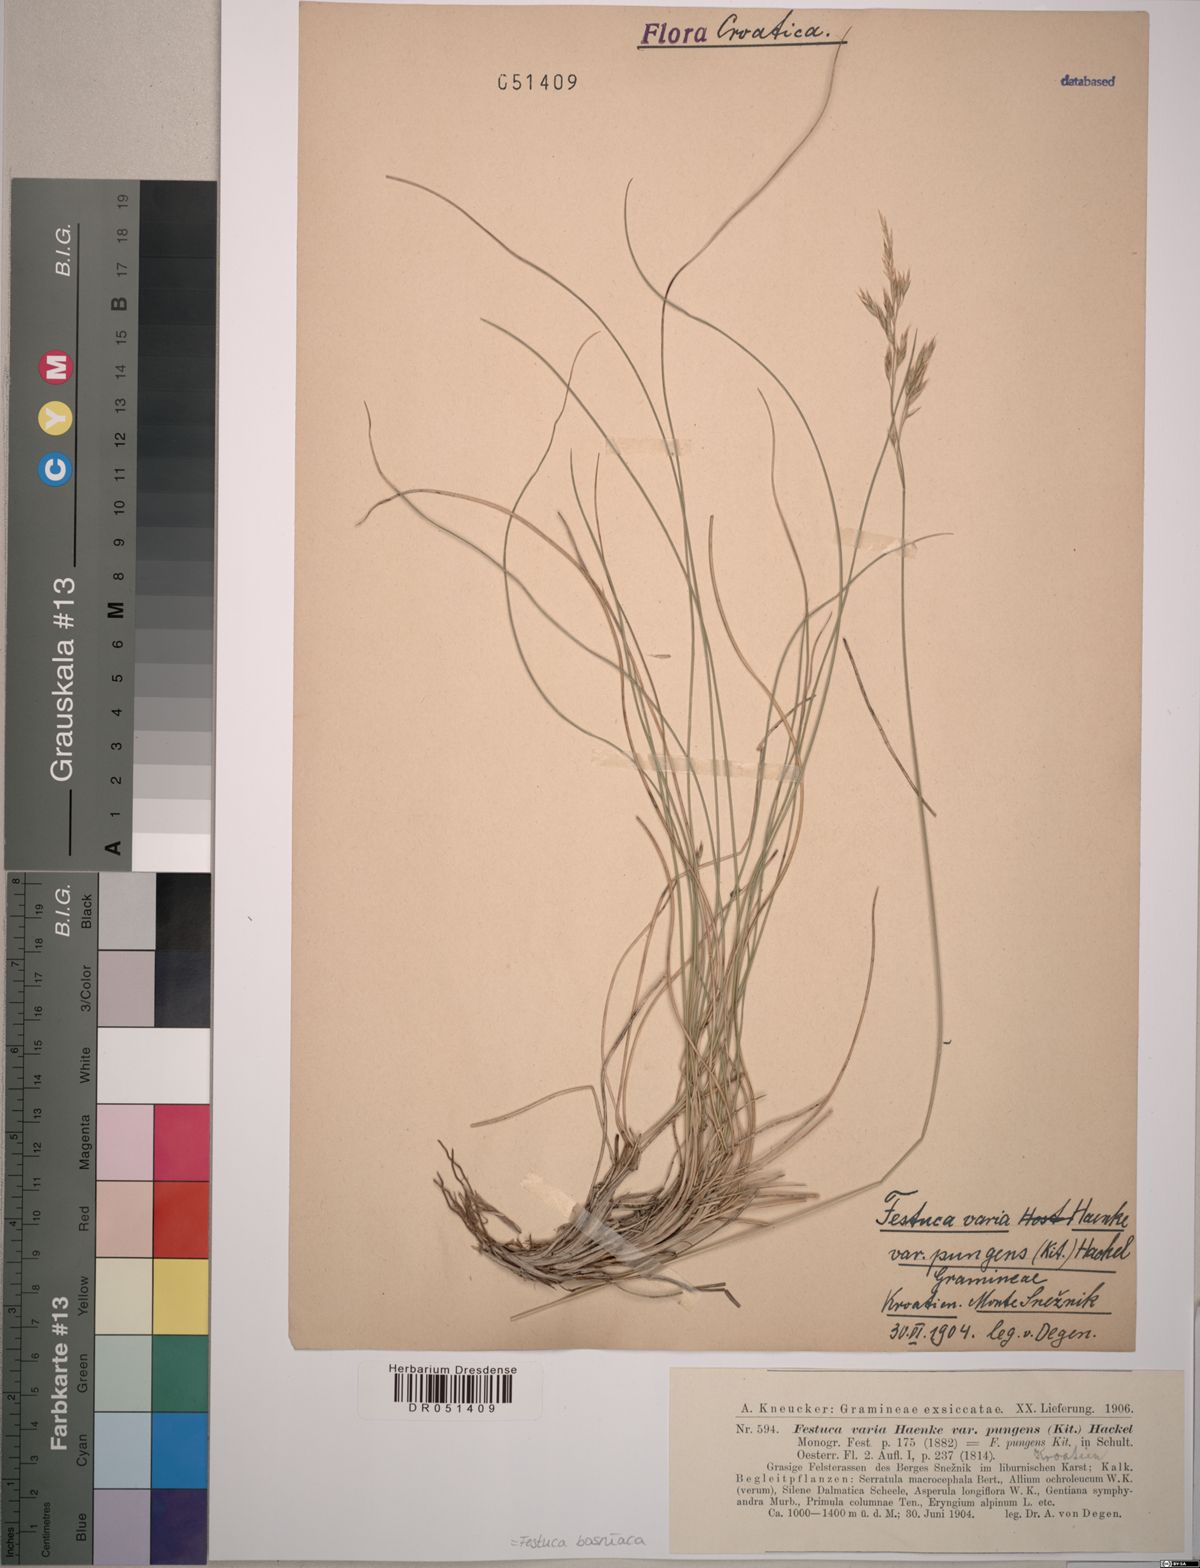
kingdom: Plantae
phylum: Tracheophyta
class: Liliopsida
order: Poales
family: Poaceae
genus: Festuca
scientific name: Festuca bosniaca
